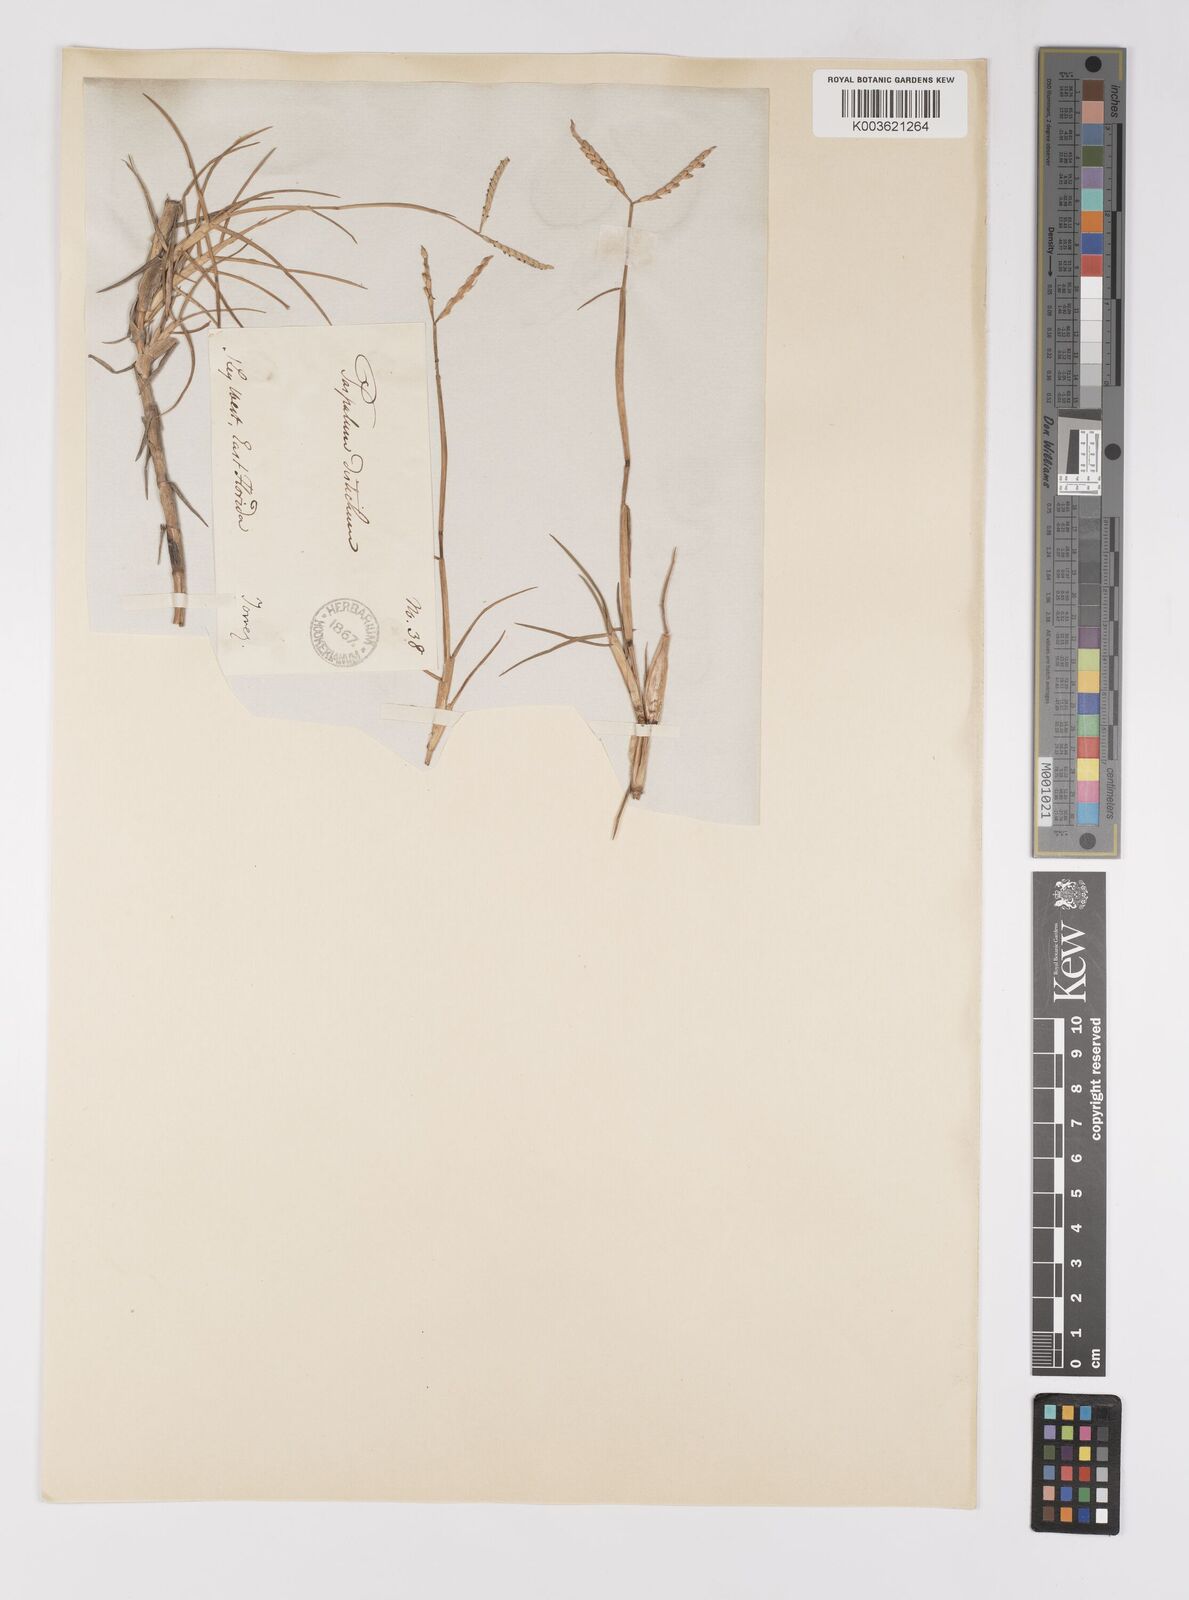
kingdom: Plantae
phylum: Tracheophyta
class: Liliopsida
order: Poales
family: Poaceae
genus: Paspalum
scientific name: Paspalum vaginatum
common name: Seashore paspalum
